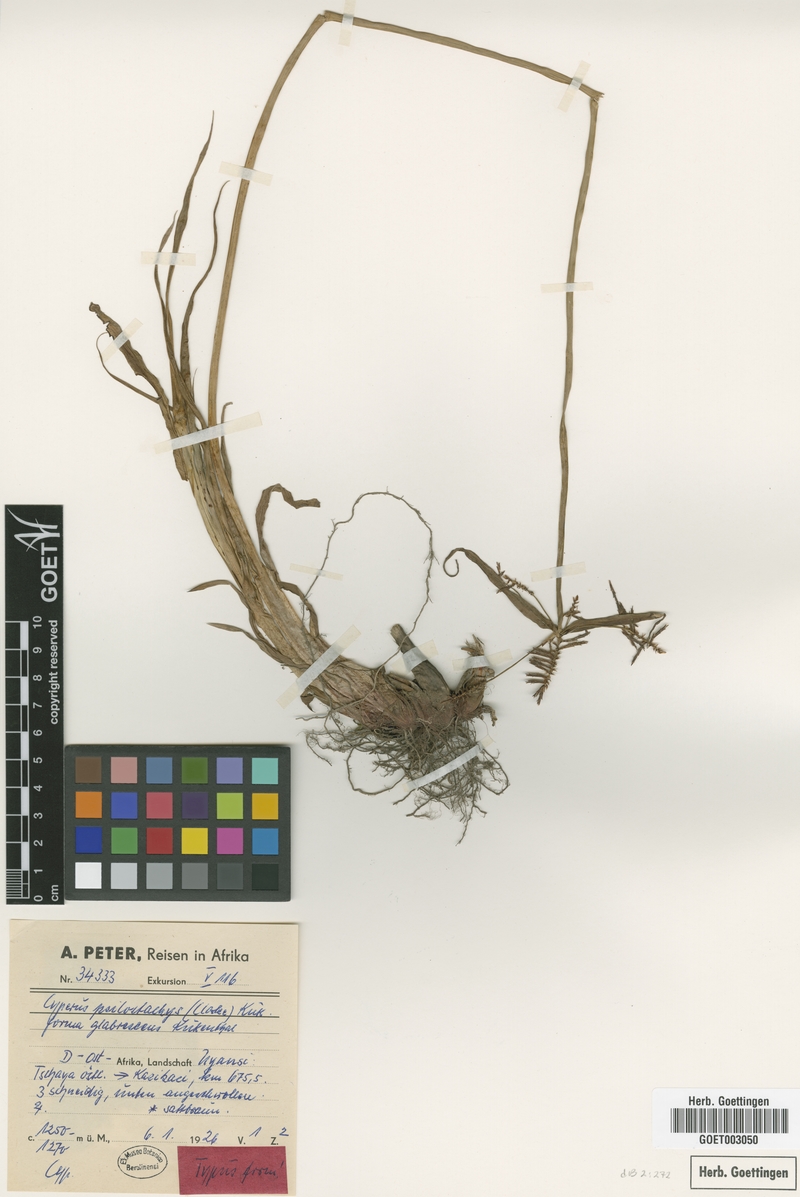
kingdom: Plantae
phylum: Tracheophyta
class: Liliopsida
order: Poales
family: Cyperaceae
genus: Cyperus
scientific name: Cyperus trigonellus
